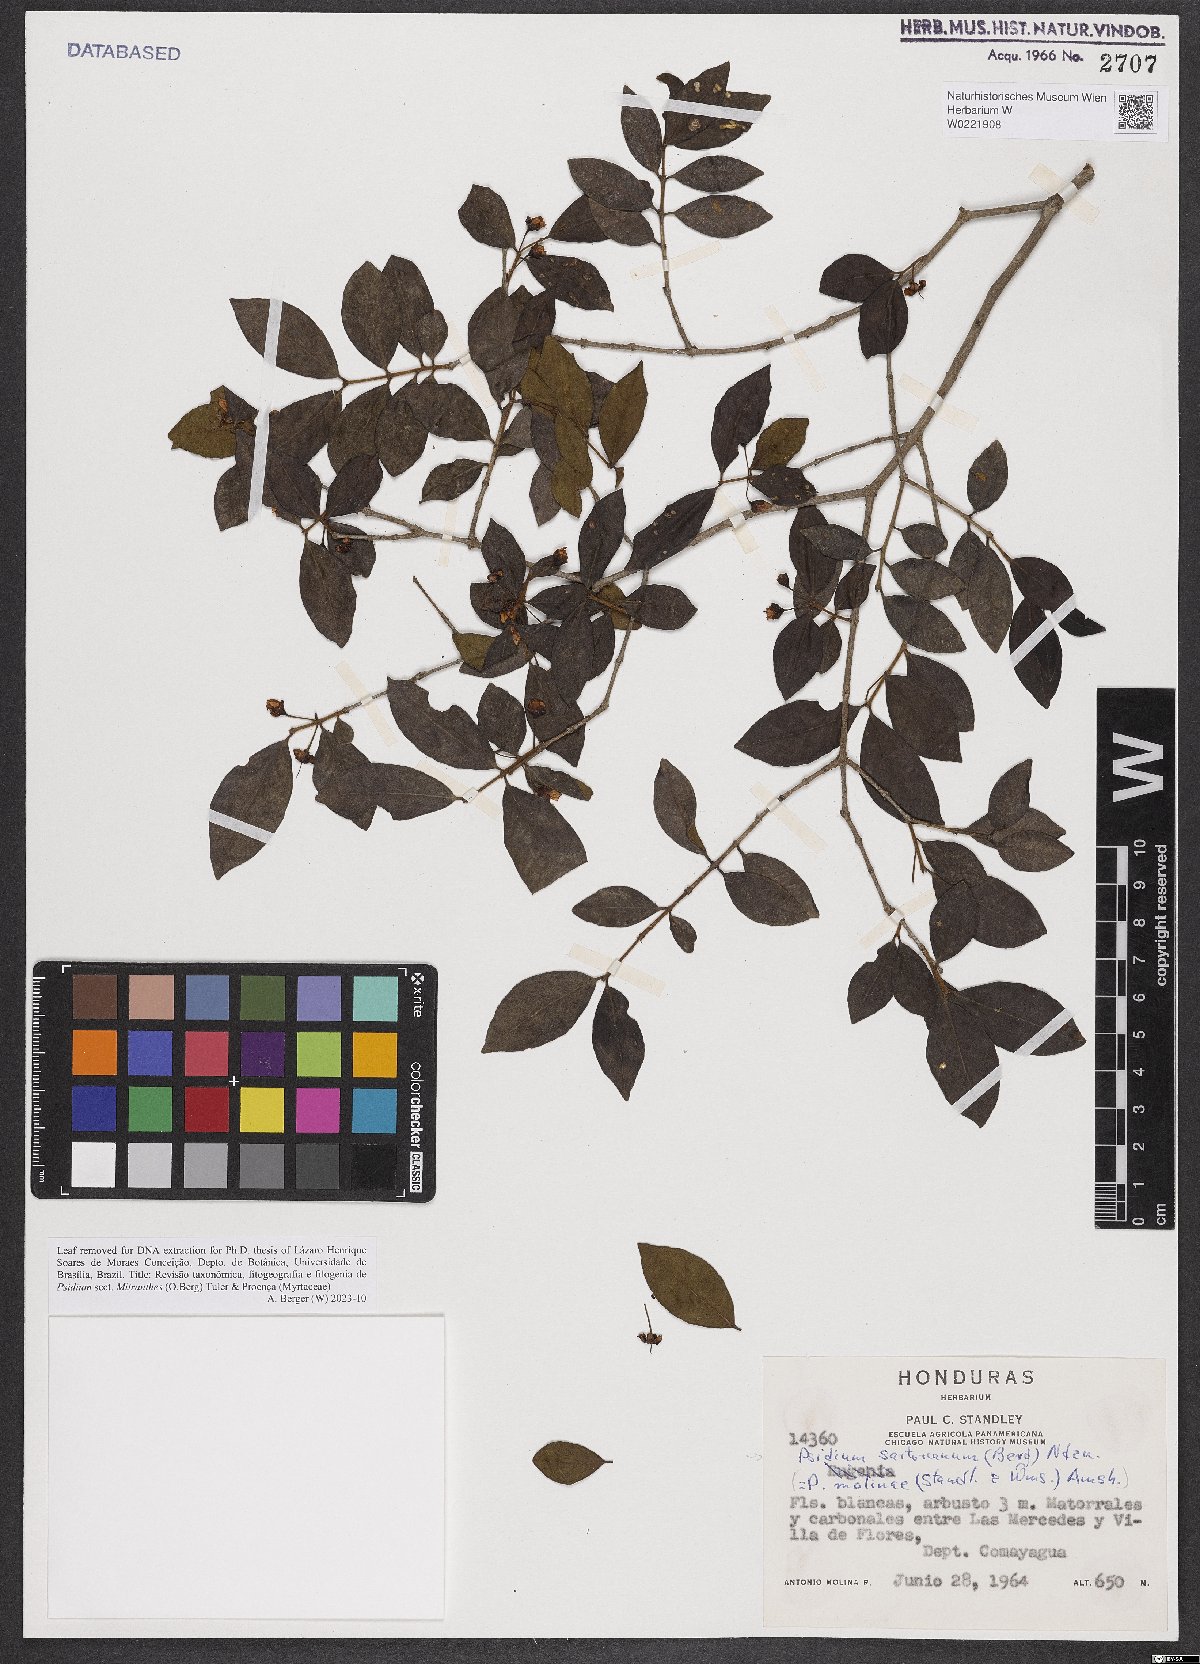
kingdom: Plantae
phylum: Tracheophyta
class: Magnoliopsida
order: Myrtales
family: Myrtaceae
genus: Psidium
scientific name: Psidium sartorianum
